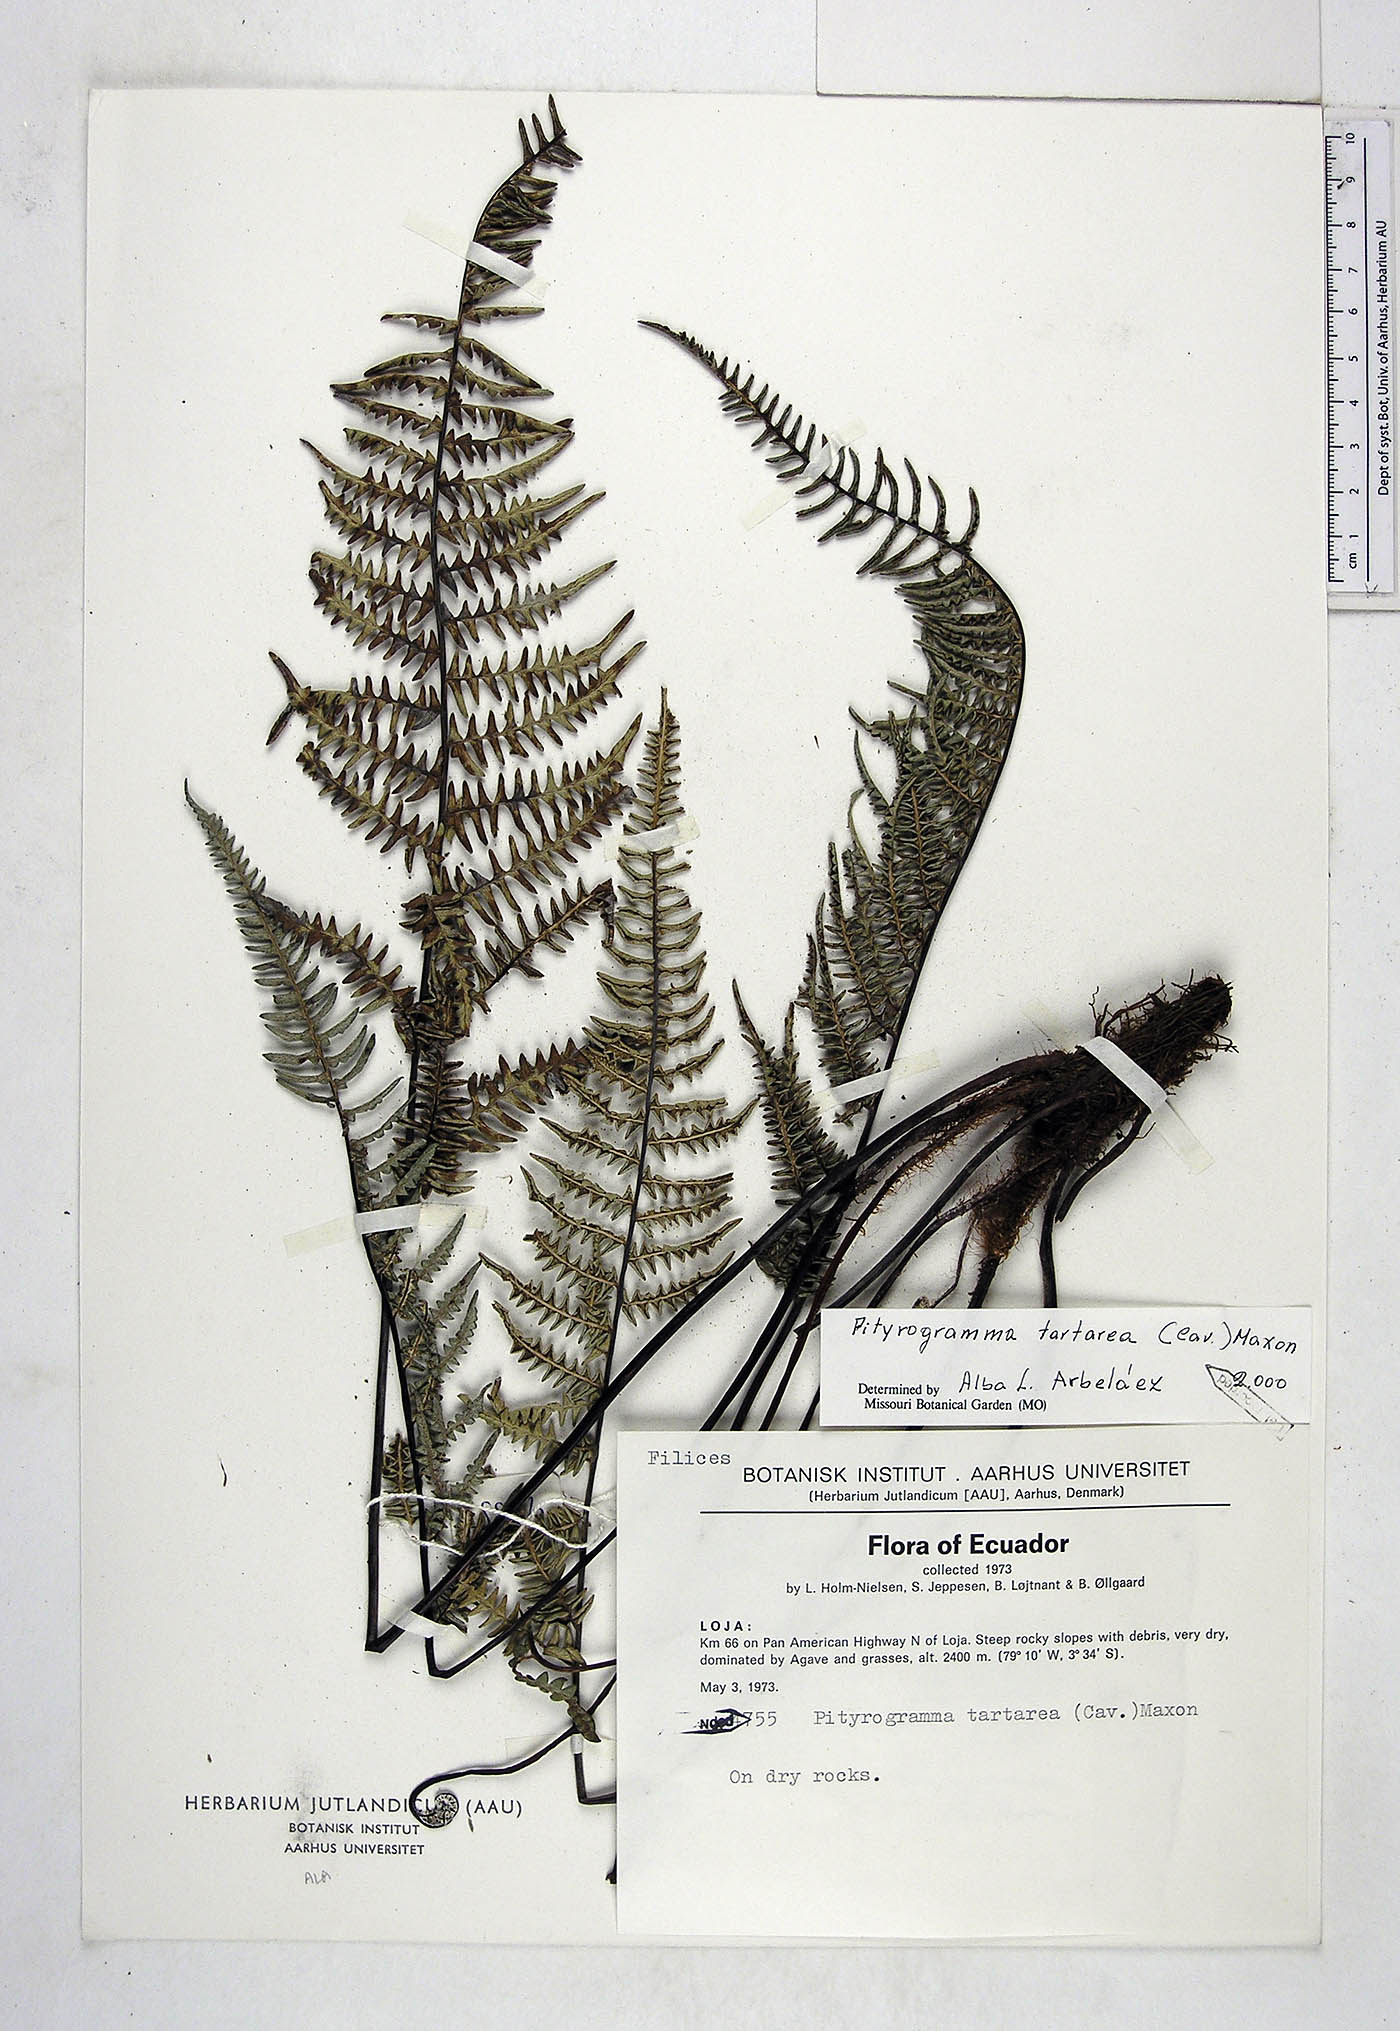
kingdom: Plantae
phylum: Tracheophyta
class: Polypodiopsida
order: Polypodiales
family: Pteridaceae
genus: Pityrogramma
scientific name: Pityrogramma ebenea
